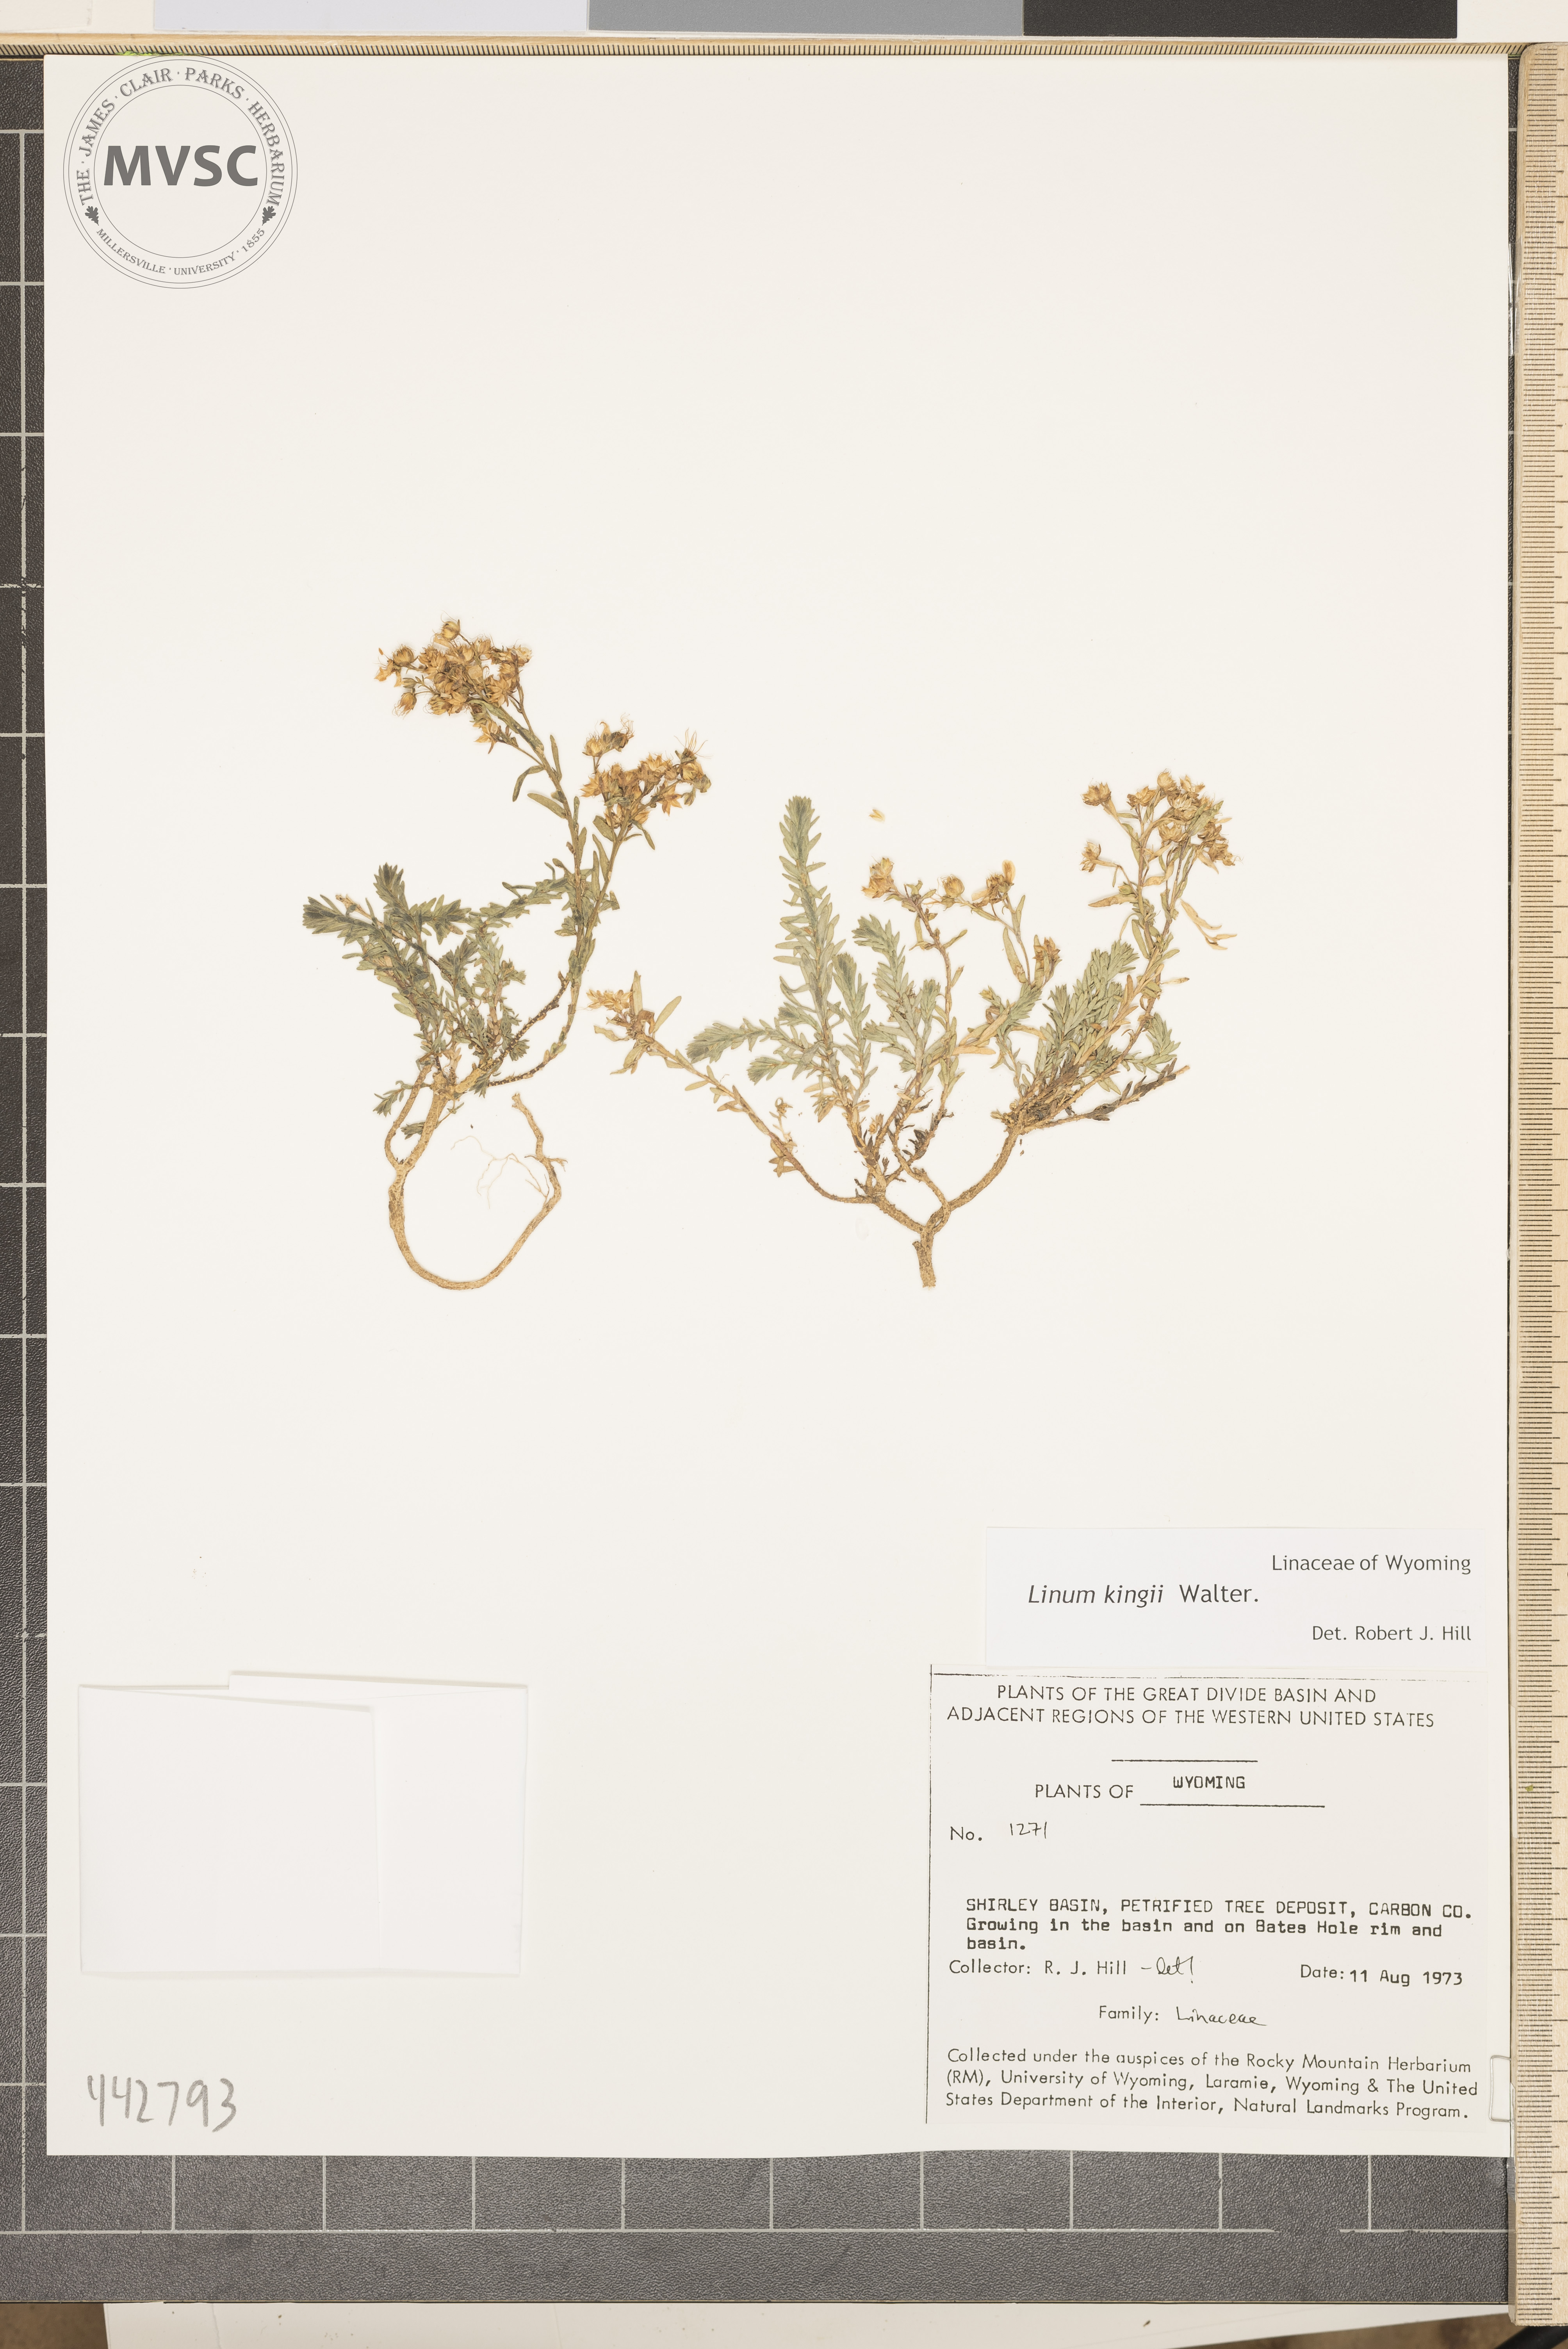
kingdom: Plantae
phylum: Tracheophyta
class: Magnoliopsida
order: Malpighiales
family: Linaceae
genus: Linum
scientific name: Linum kingii
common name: King's yellow flax
